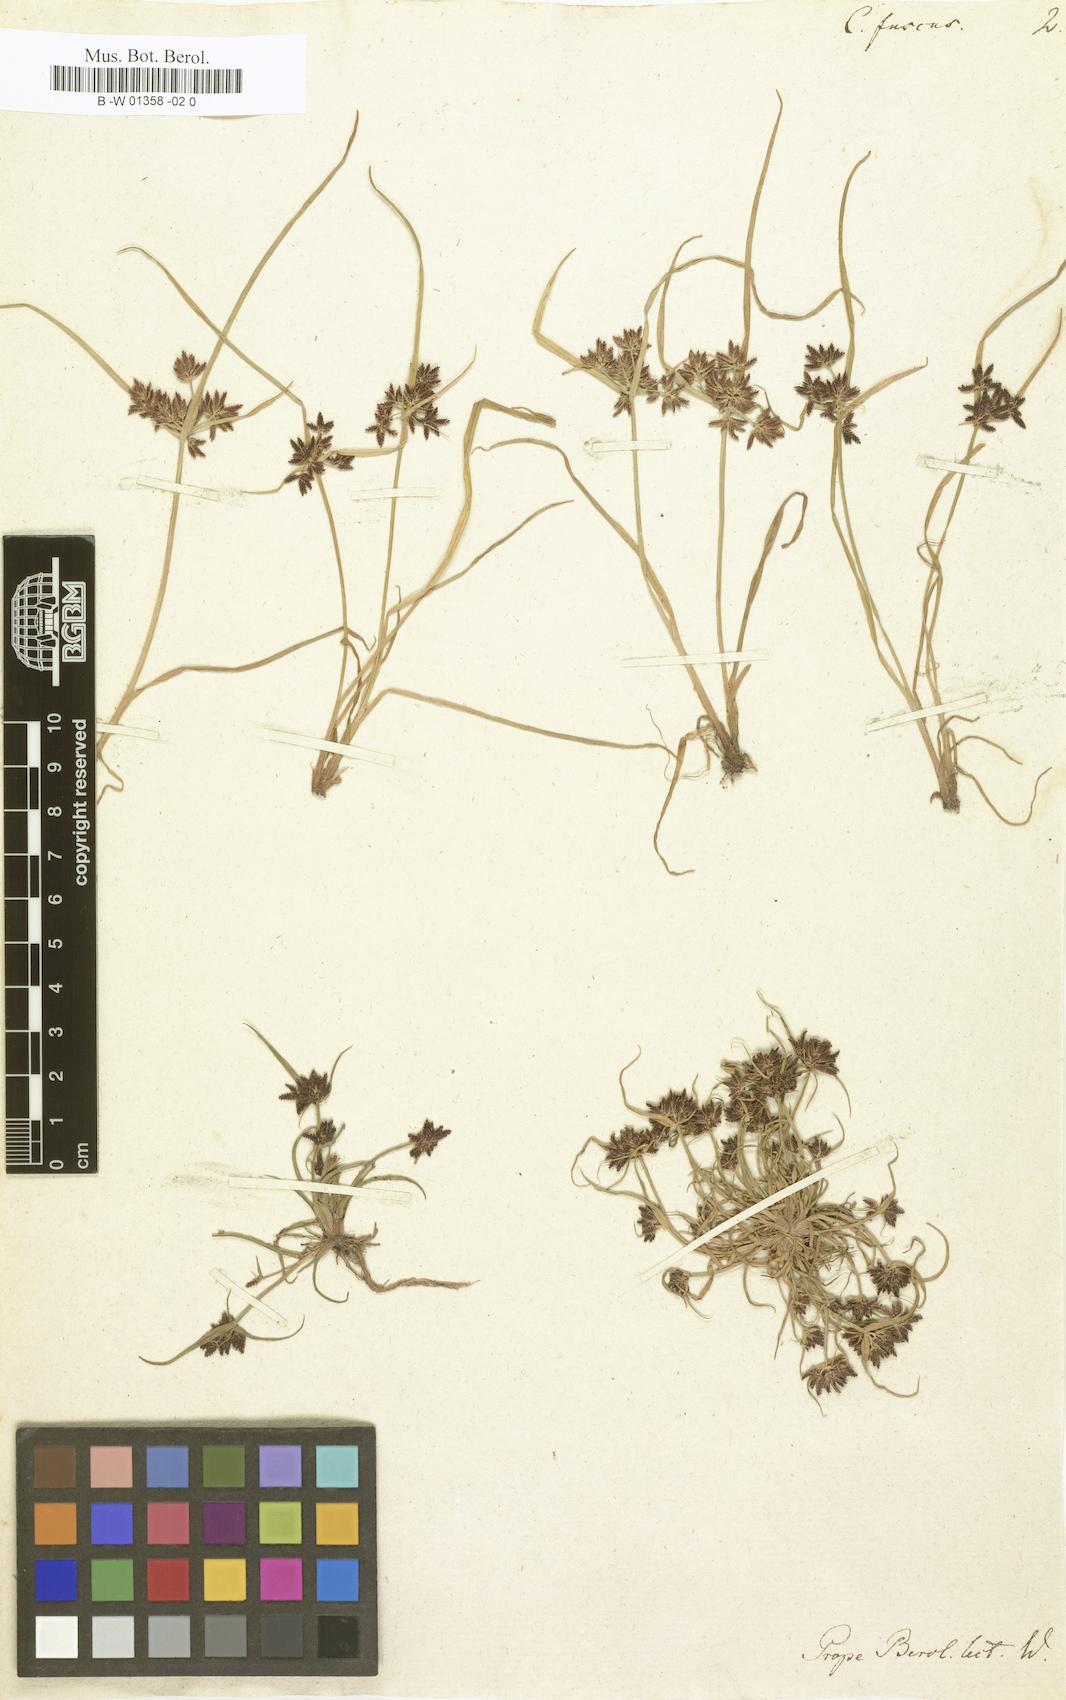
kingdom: Plantae
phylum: Tracheophyta
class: Liliopsida
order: Poales
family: Cyperaceae
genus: Cyperus
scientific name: Cyperus fuscus
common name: Brown galingale
